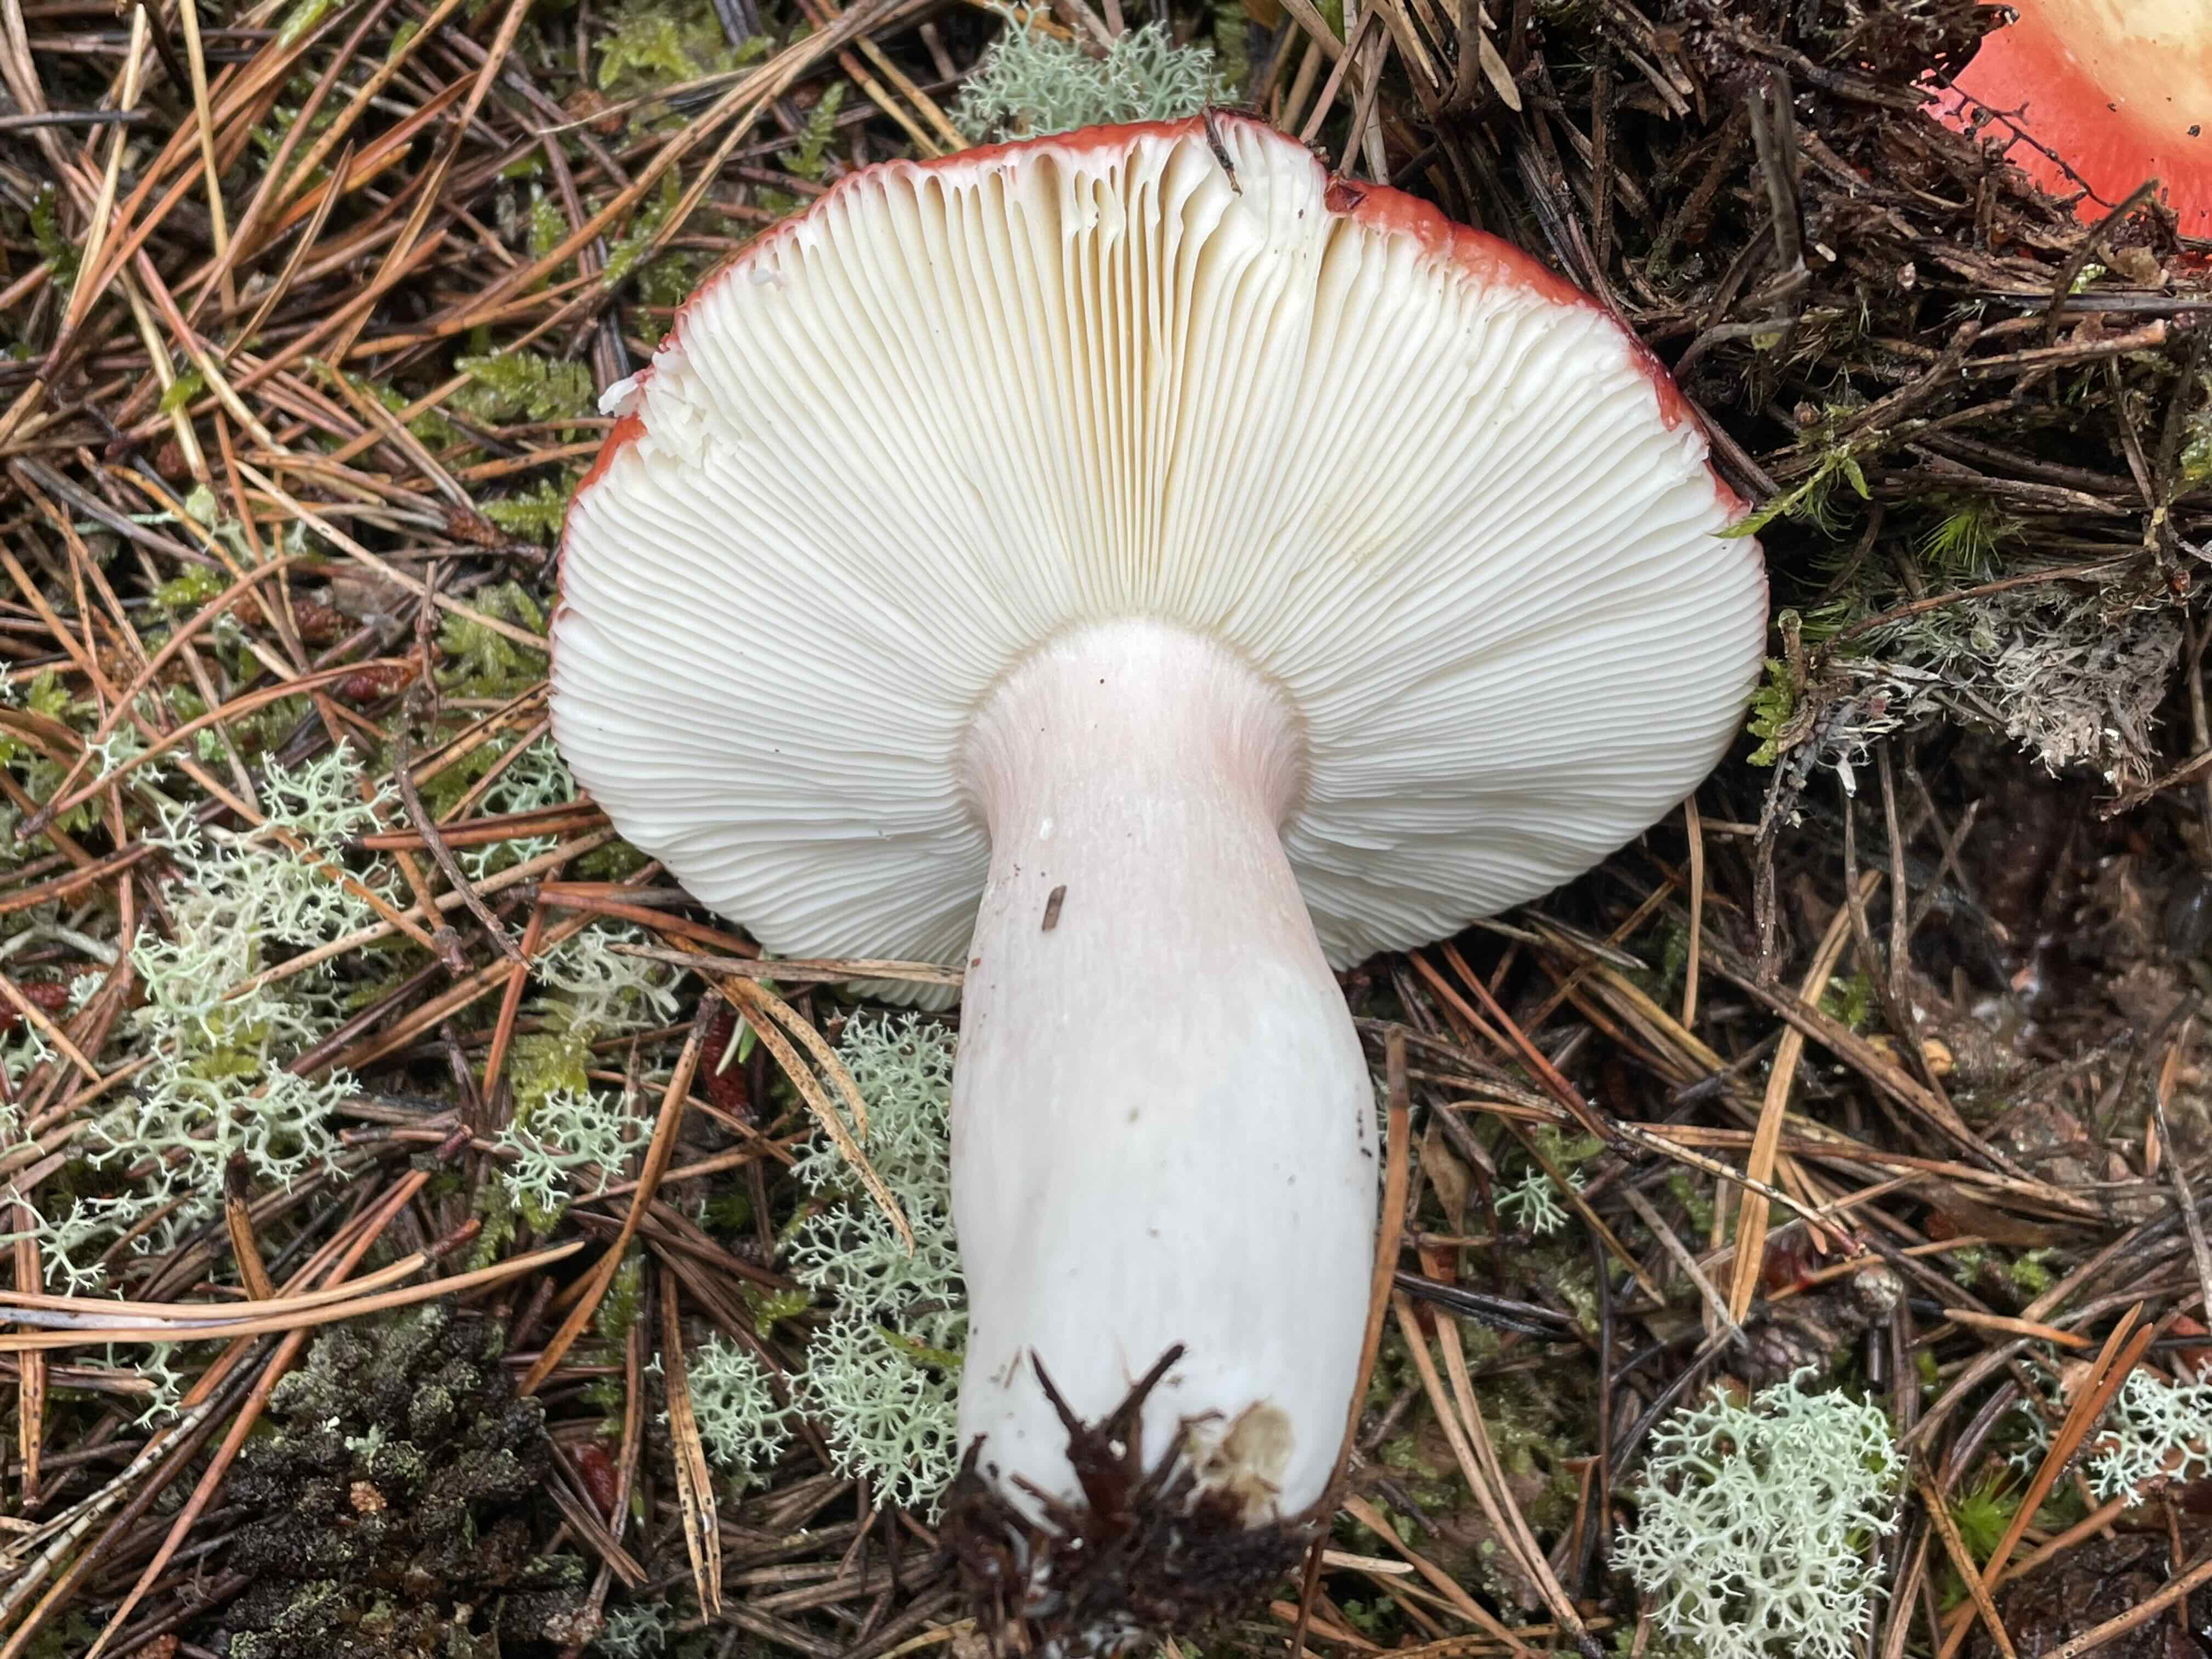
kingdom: Fungi
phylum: Basidiomycota
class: Agaricomycetes
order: Russulales
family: Russulaceae
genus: Russula
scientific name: Russula paludosa
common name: prægtig skørhat
